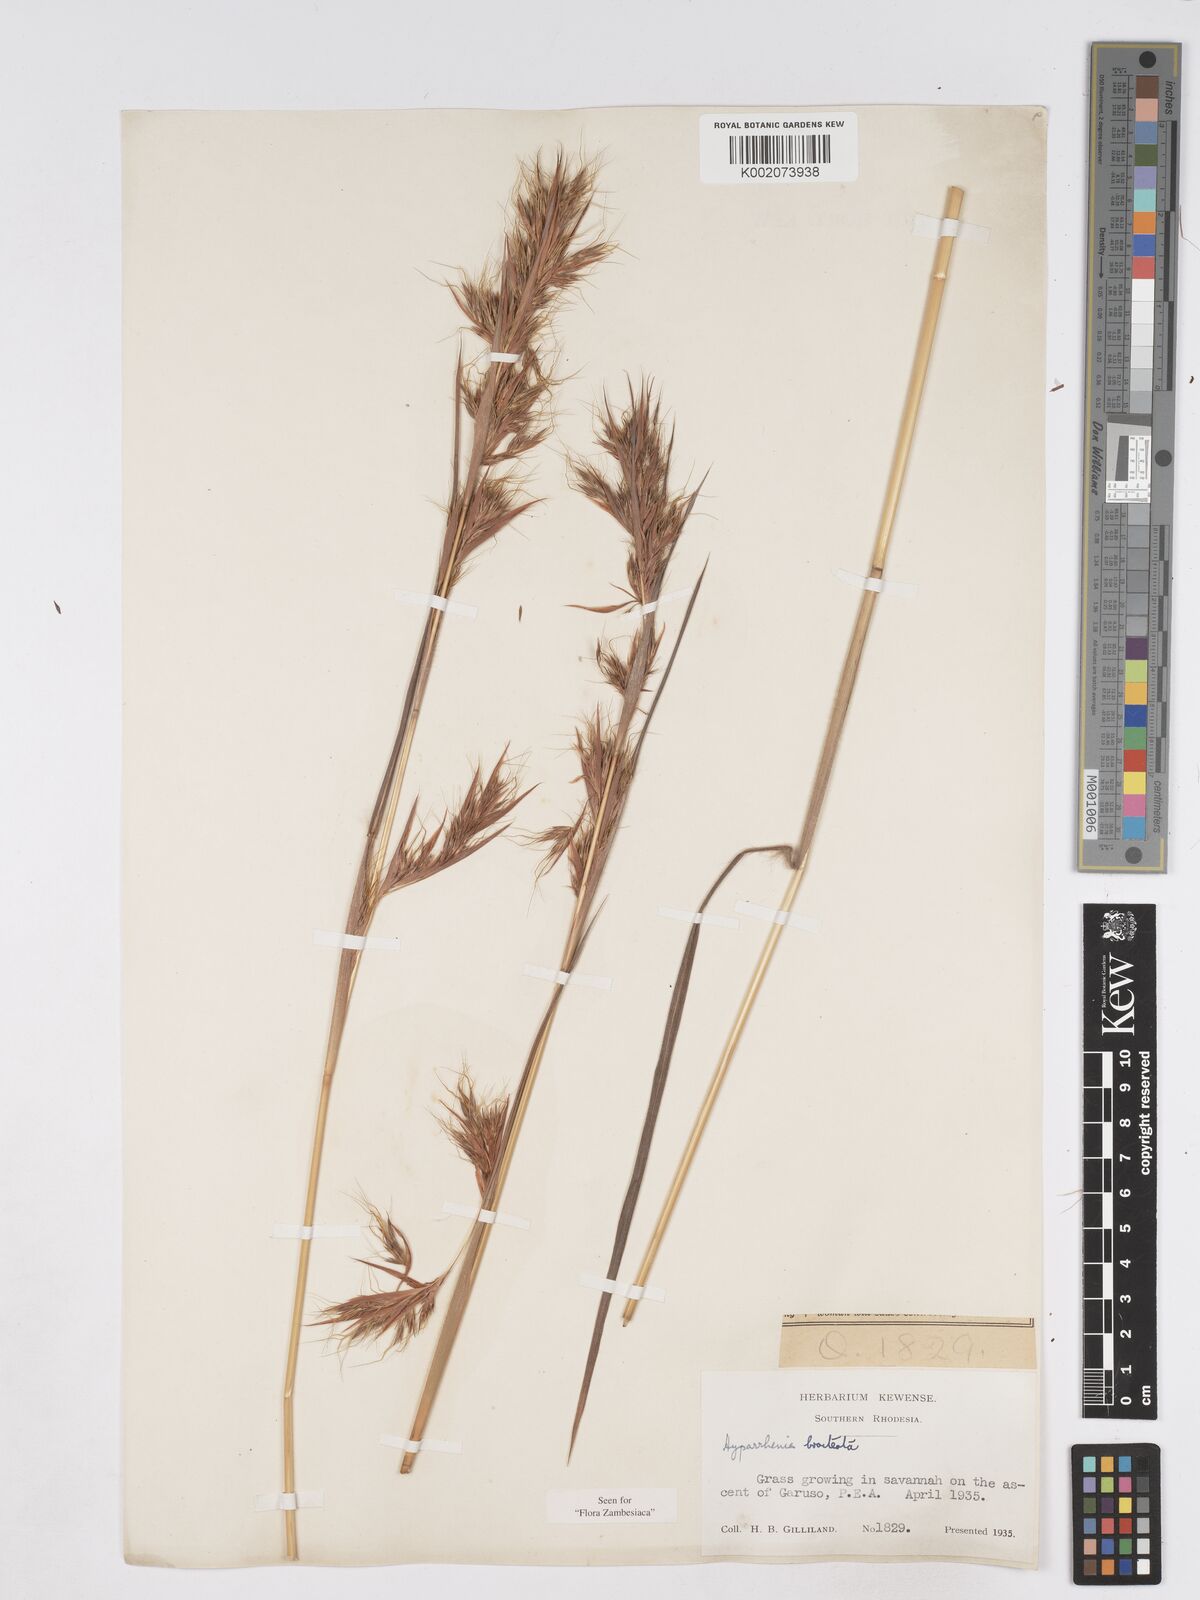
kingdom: Plantae
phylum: Tracheophyta
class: Liliopsida
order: Poales
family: Poaceae
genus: Hyparrhenia
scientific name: Hyparrhenia bracteata
